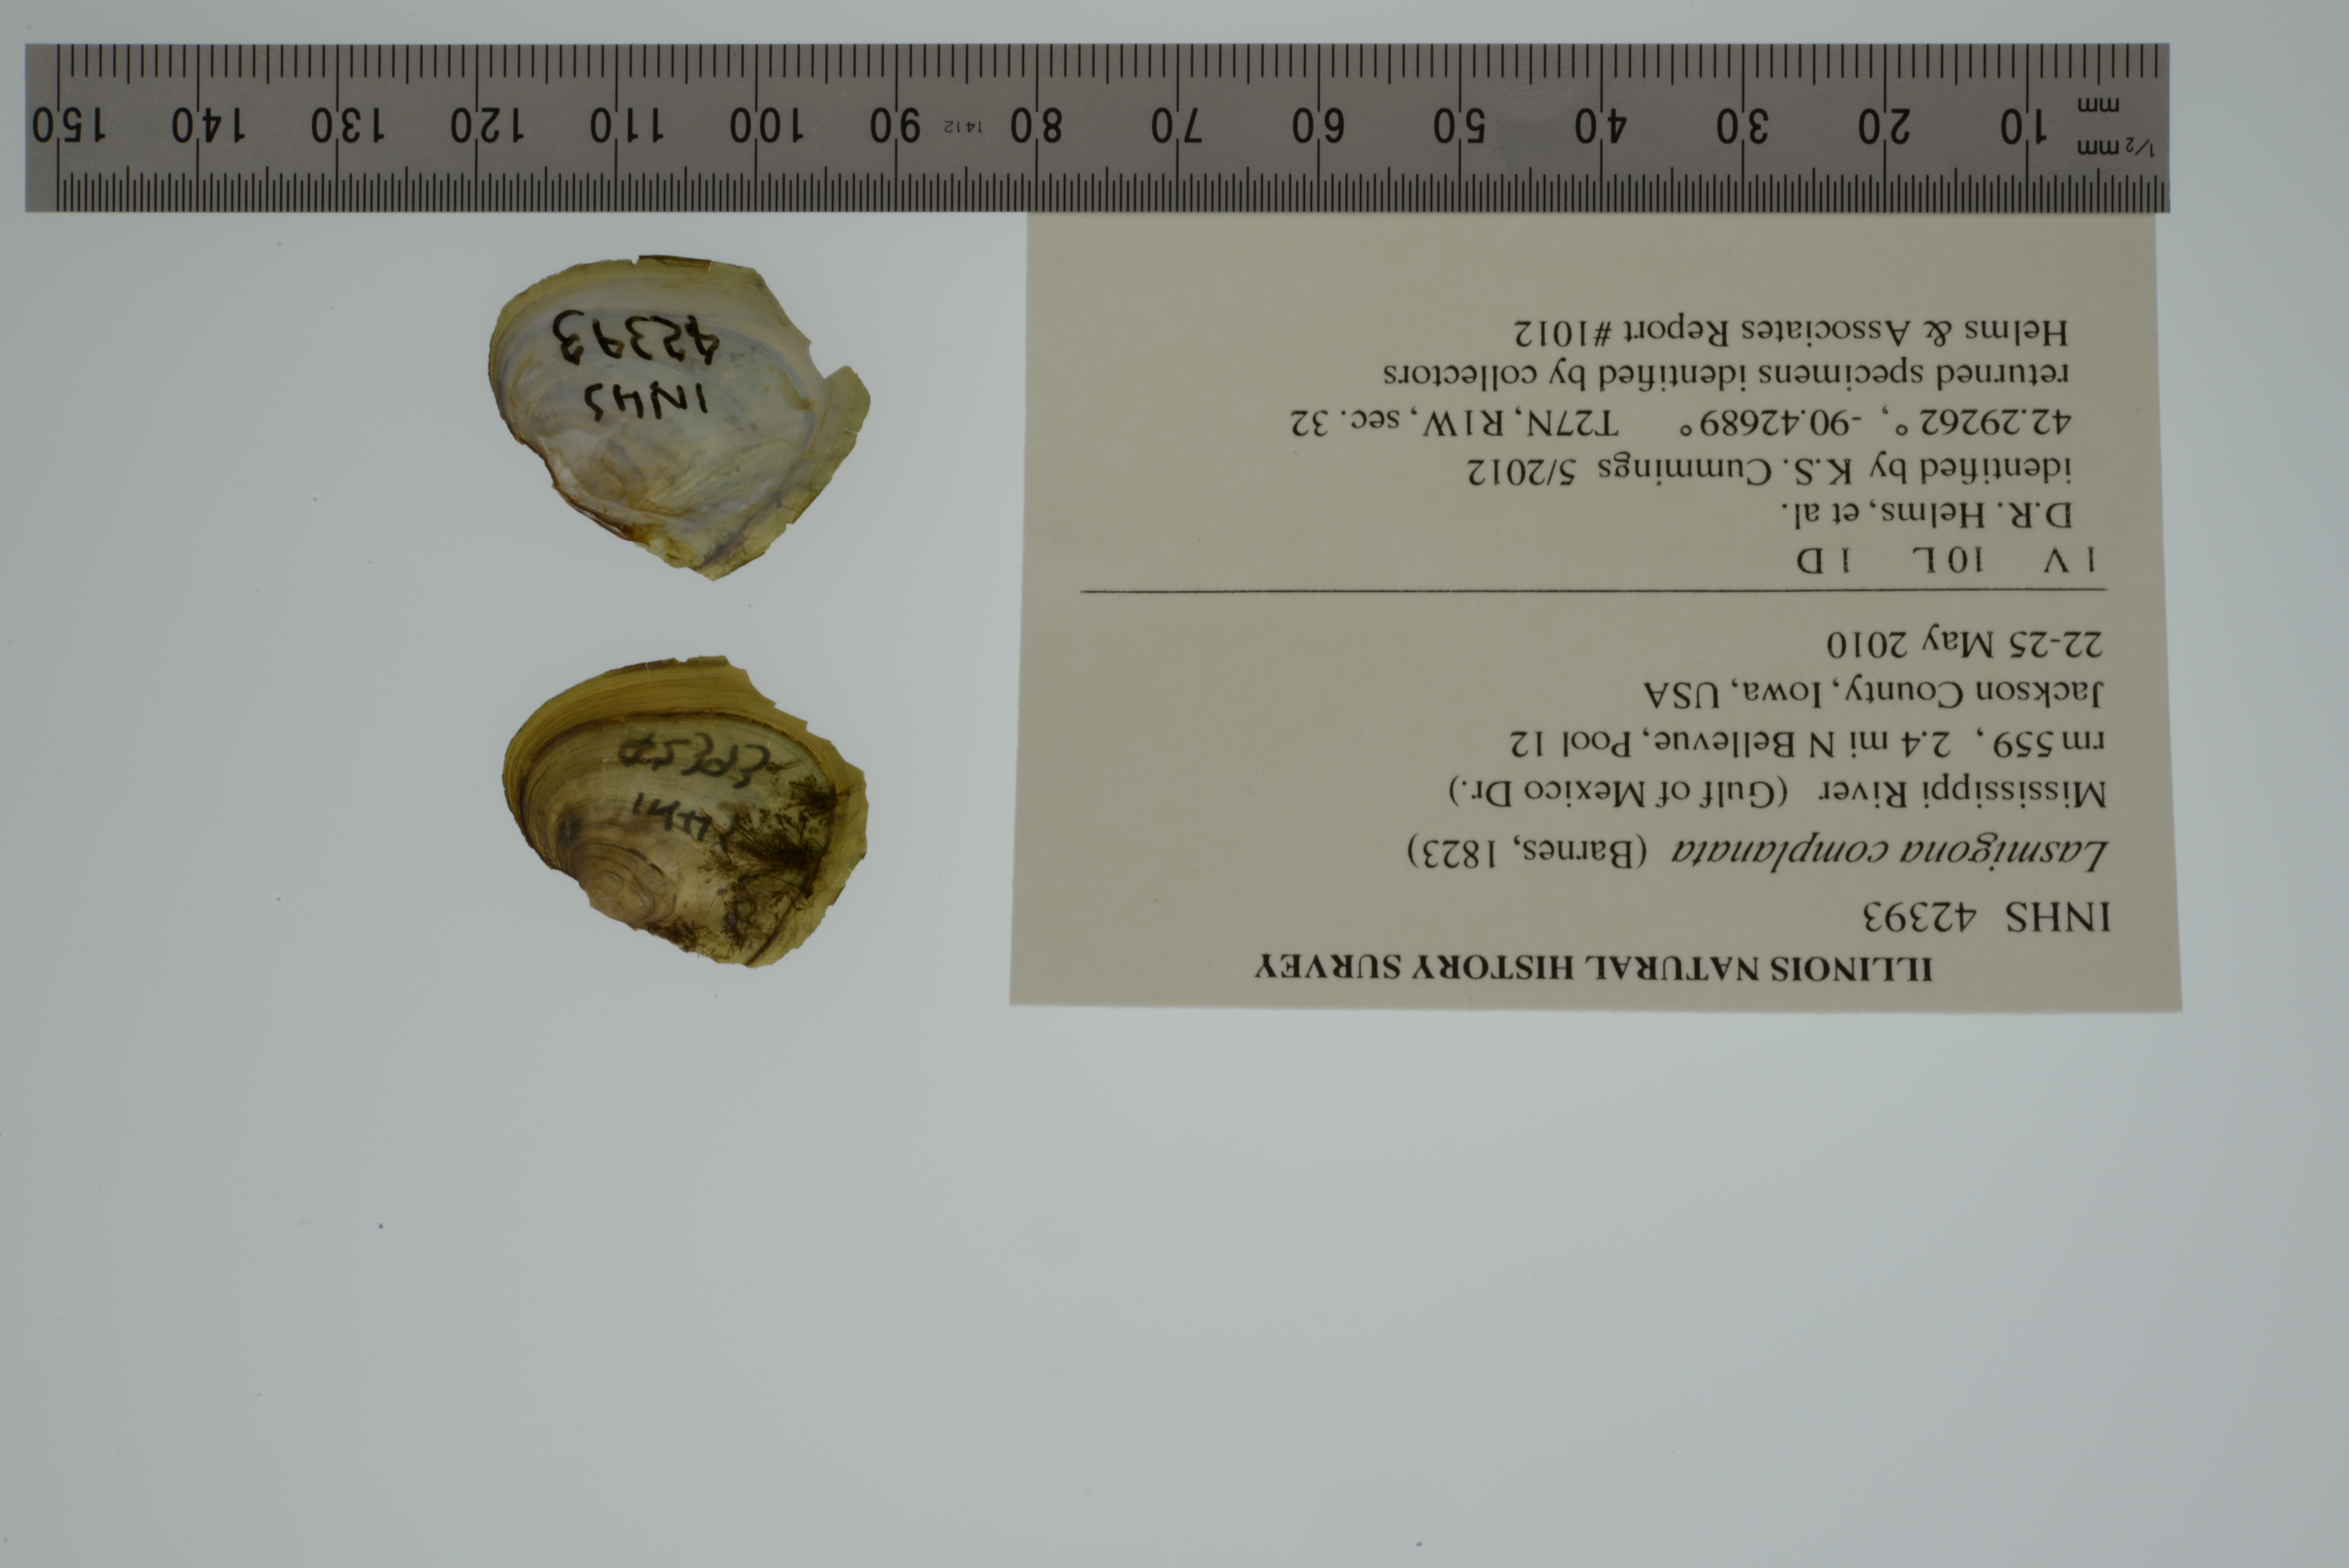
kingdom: Animalia
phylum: Mollusca
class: Bivalvia
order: Unionida
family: Unionidae
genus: Lasmigona
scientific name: Lasmigona complanata
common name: White heelsplitter
